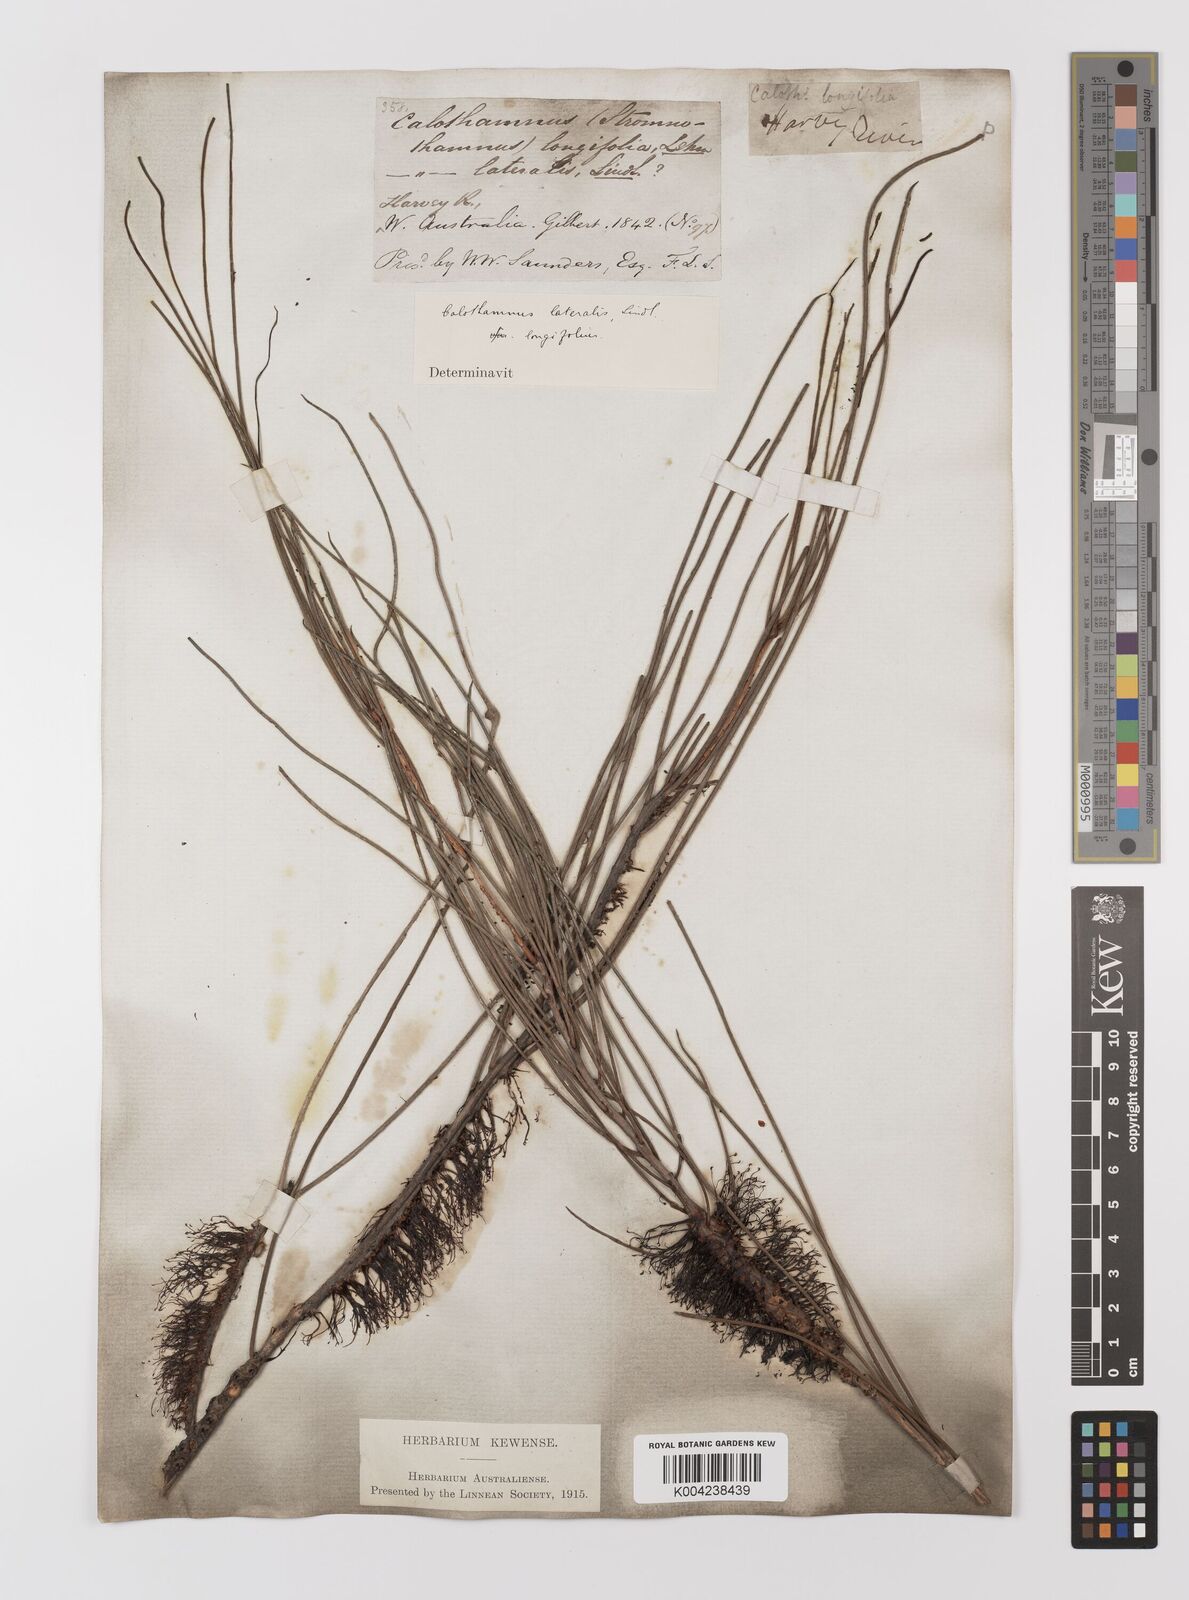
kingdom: Plantae
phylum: Tracheophyta
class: Magnoliopsida
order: Myrtales
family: Myrtaceae
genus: Melaleuca
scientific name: Melaleuca lateralis
